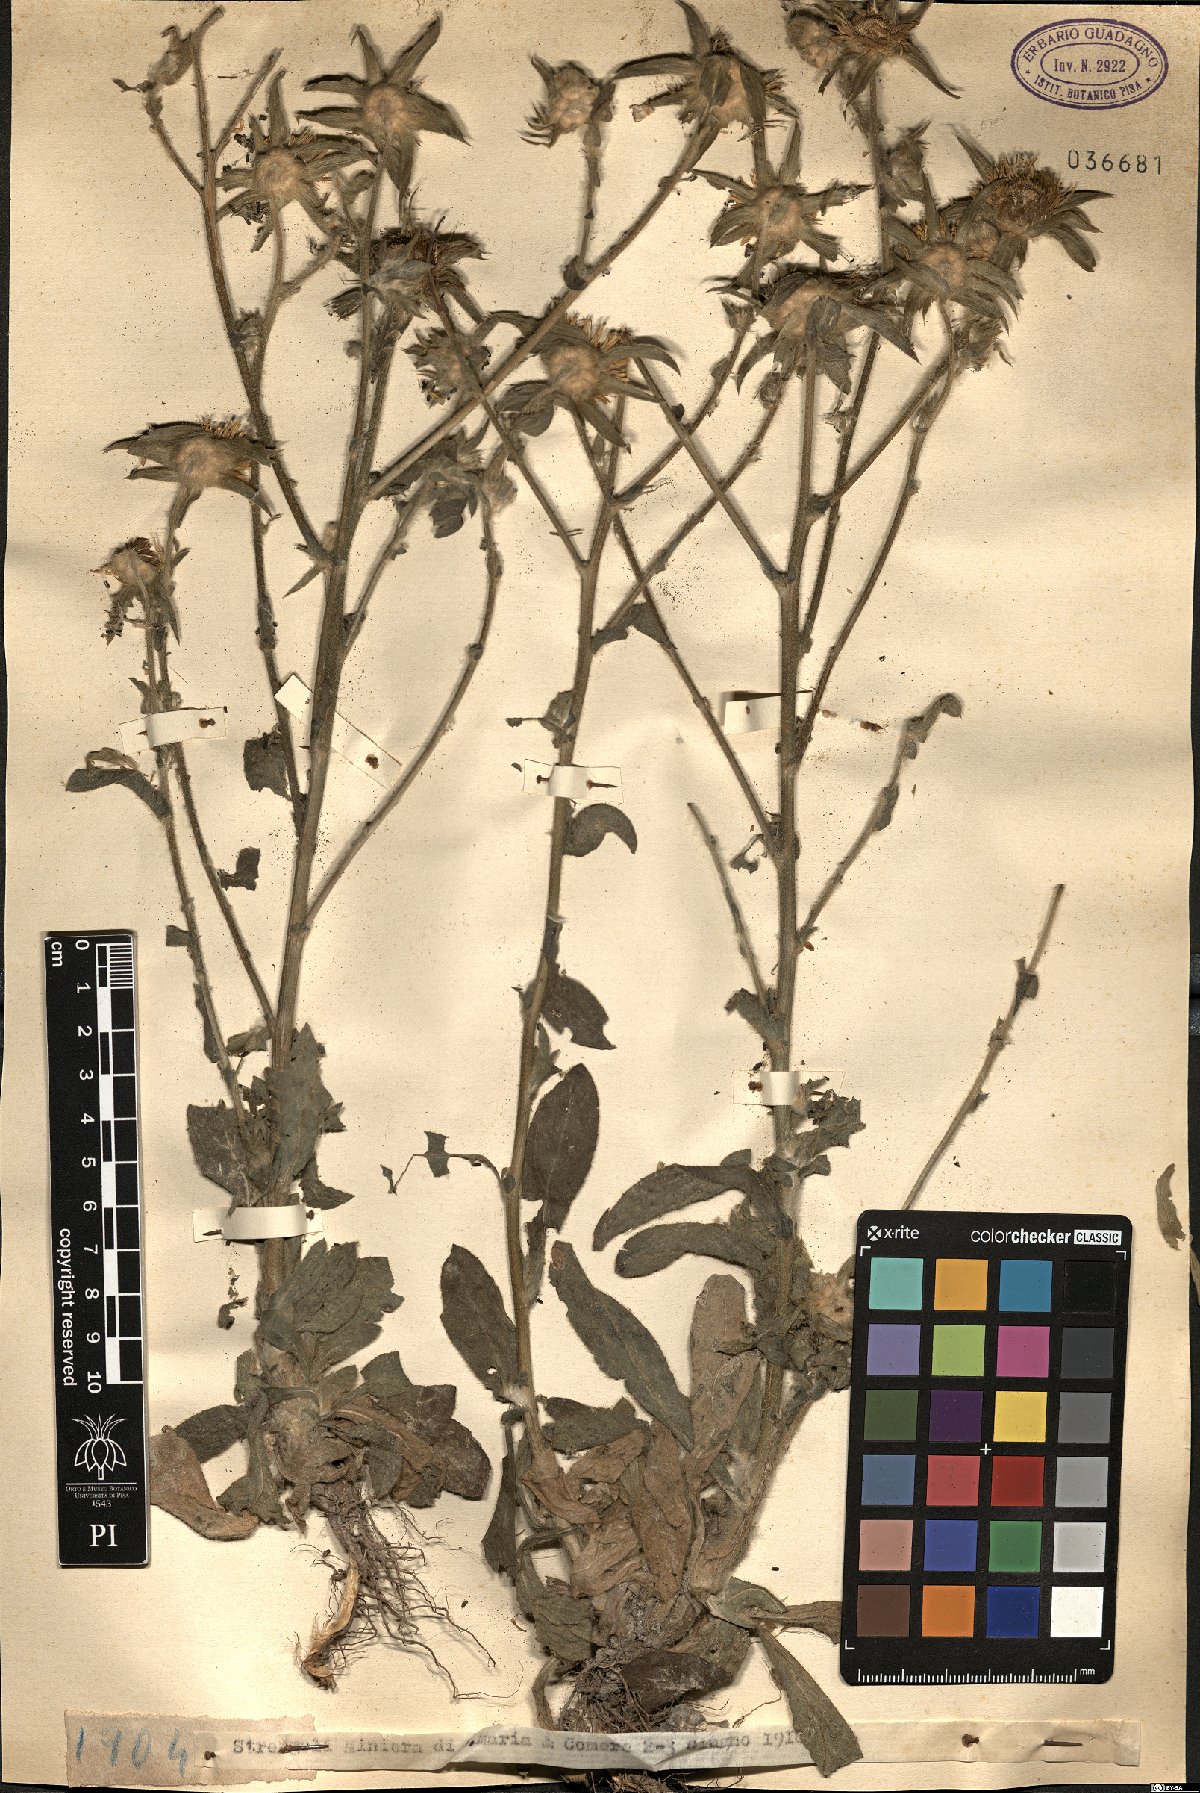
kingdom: Plantae
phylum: Tracheophyta
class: Magnoliopsida
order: Asterales
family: Asteraceae
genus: Asteriscus
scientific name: Asteriscus
